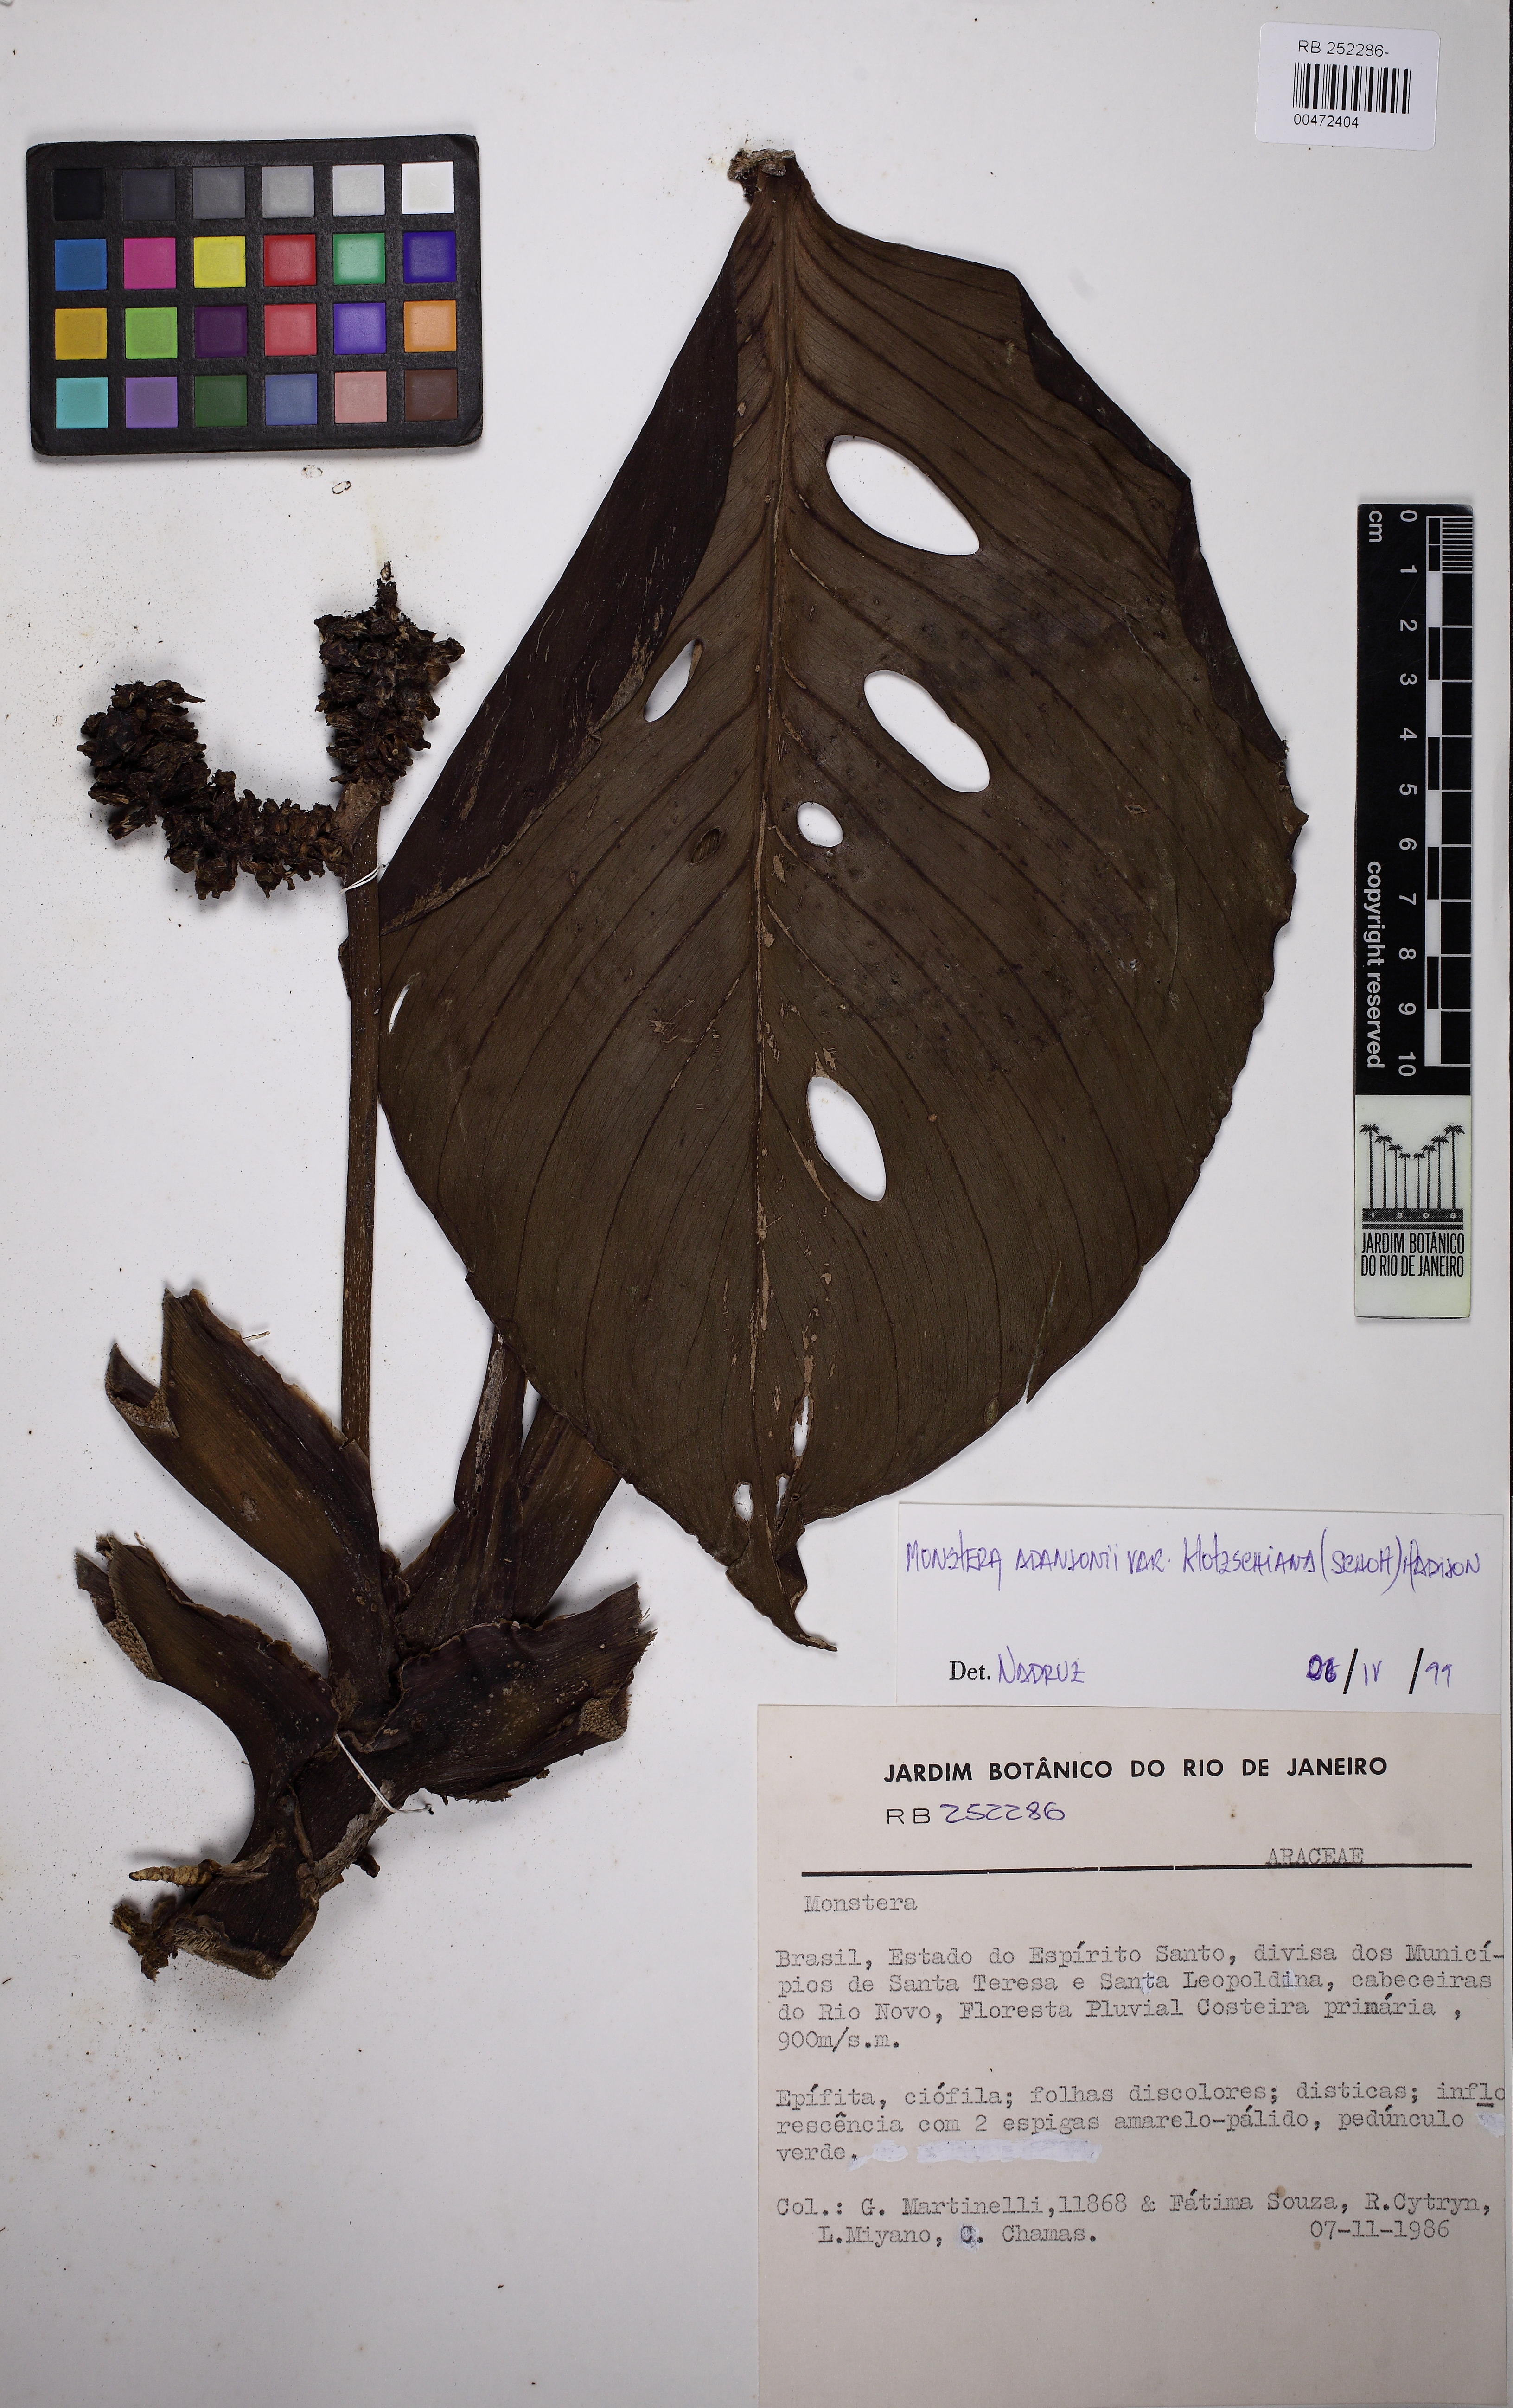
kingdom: Plantae
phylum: Tracheophyta
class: Liliopsida
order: Alismatales
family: Araceae
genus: Monstera
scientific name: Monstera adansonii
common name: Tarovine
